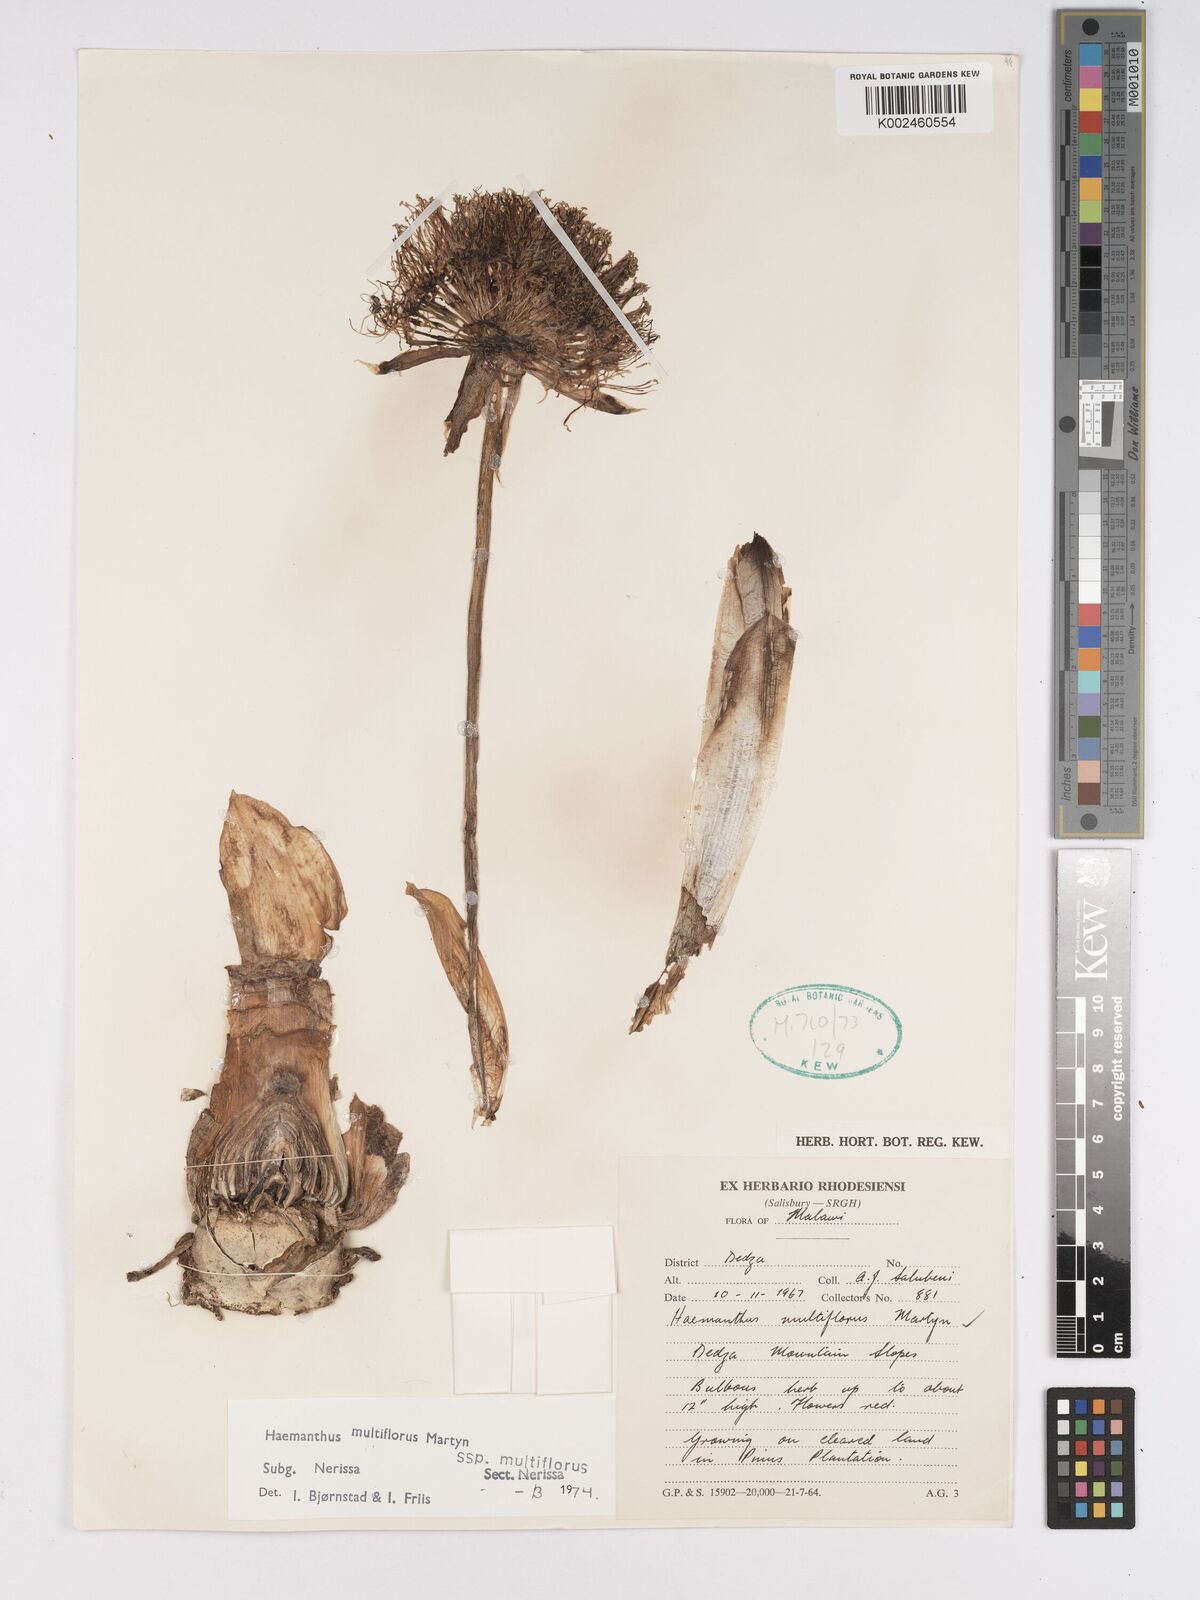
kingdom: Plantae
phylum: Tracheophyta
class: Liliopsida
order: Asparagales
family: Amaryllidaceae
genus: Scadoxus
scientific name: Scadoxus multiflorus
